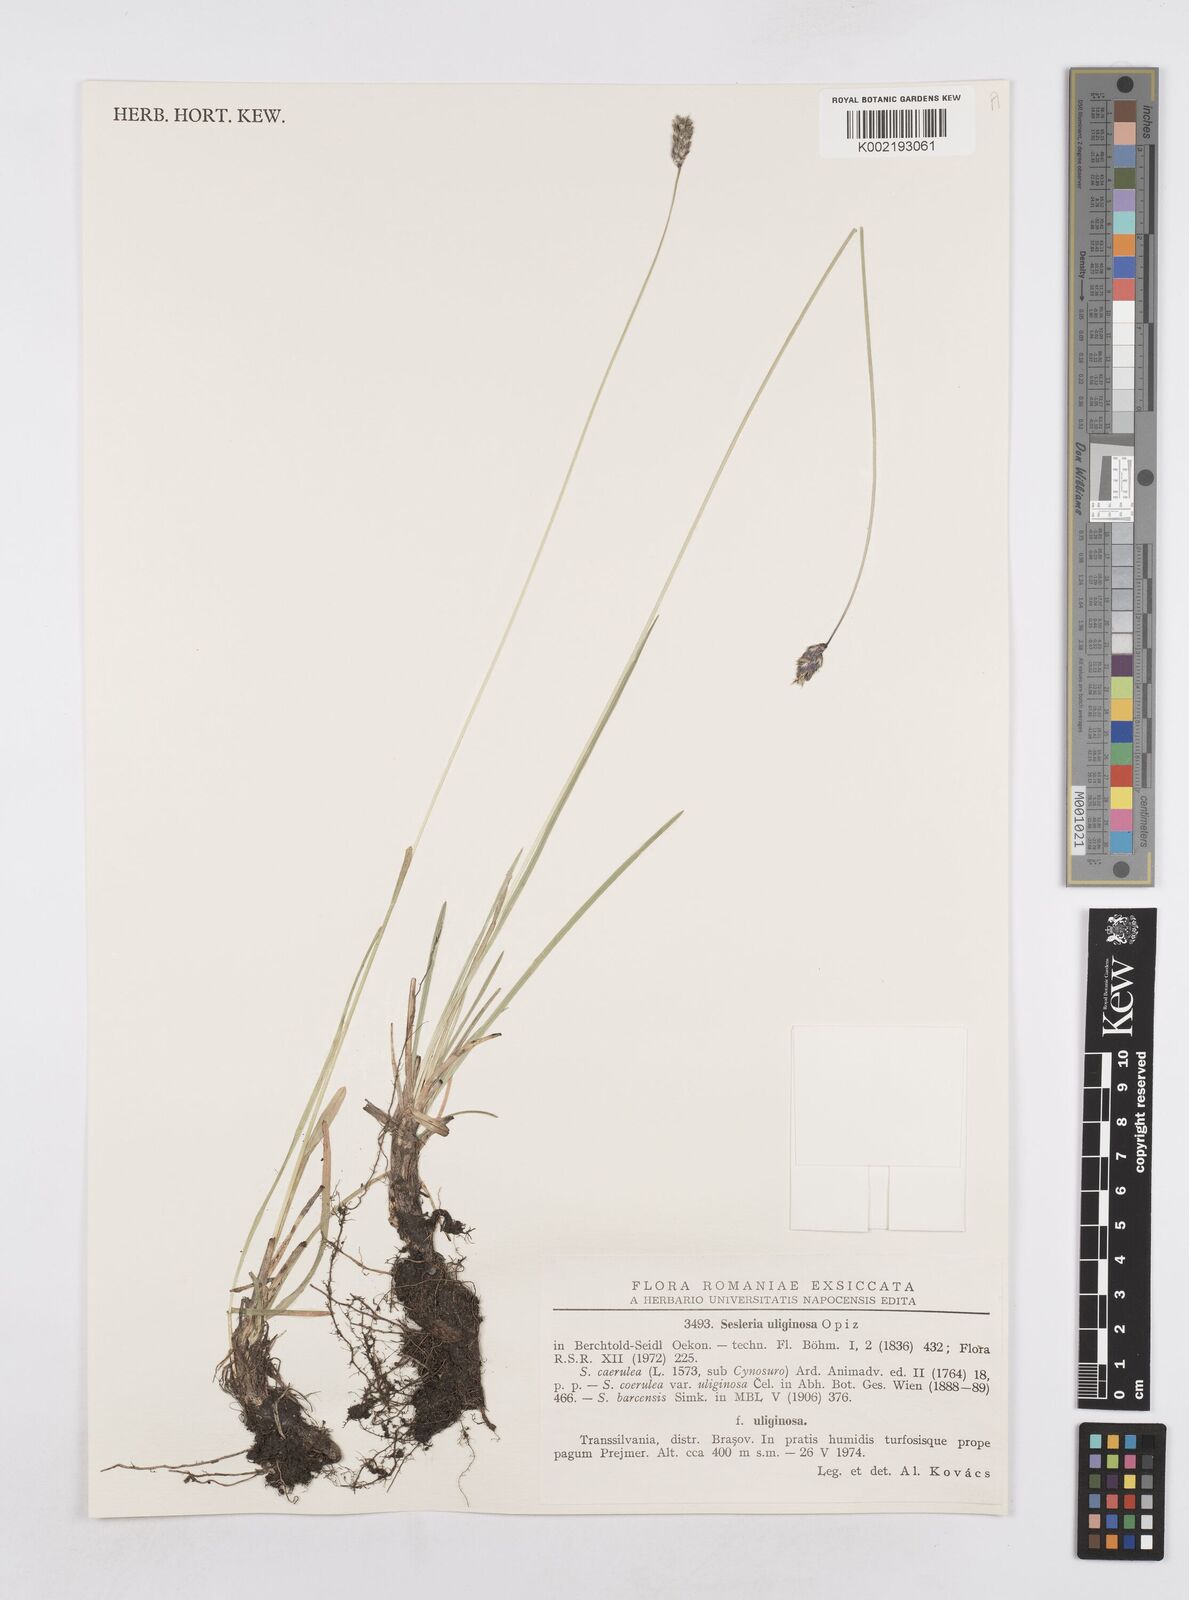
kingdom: Plantae
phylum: Tracheophyta
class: Liliopsida
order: Poales
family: Poaceae
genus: Sesleria
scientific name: Sesleria caerulea
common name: Blue moor-grass
